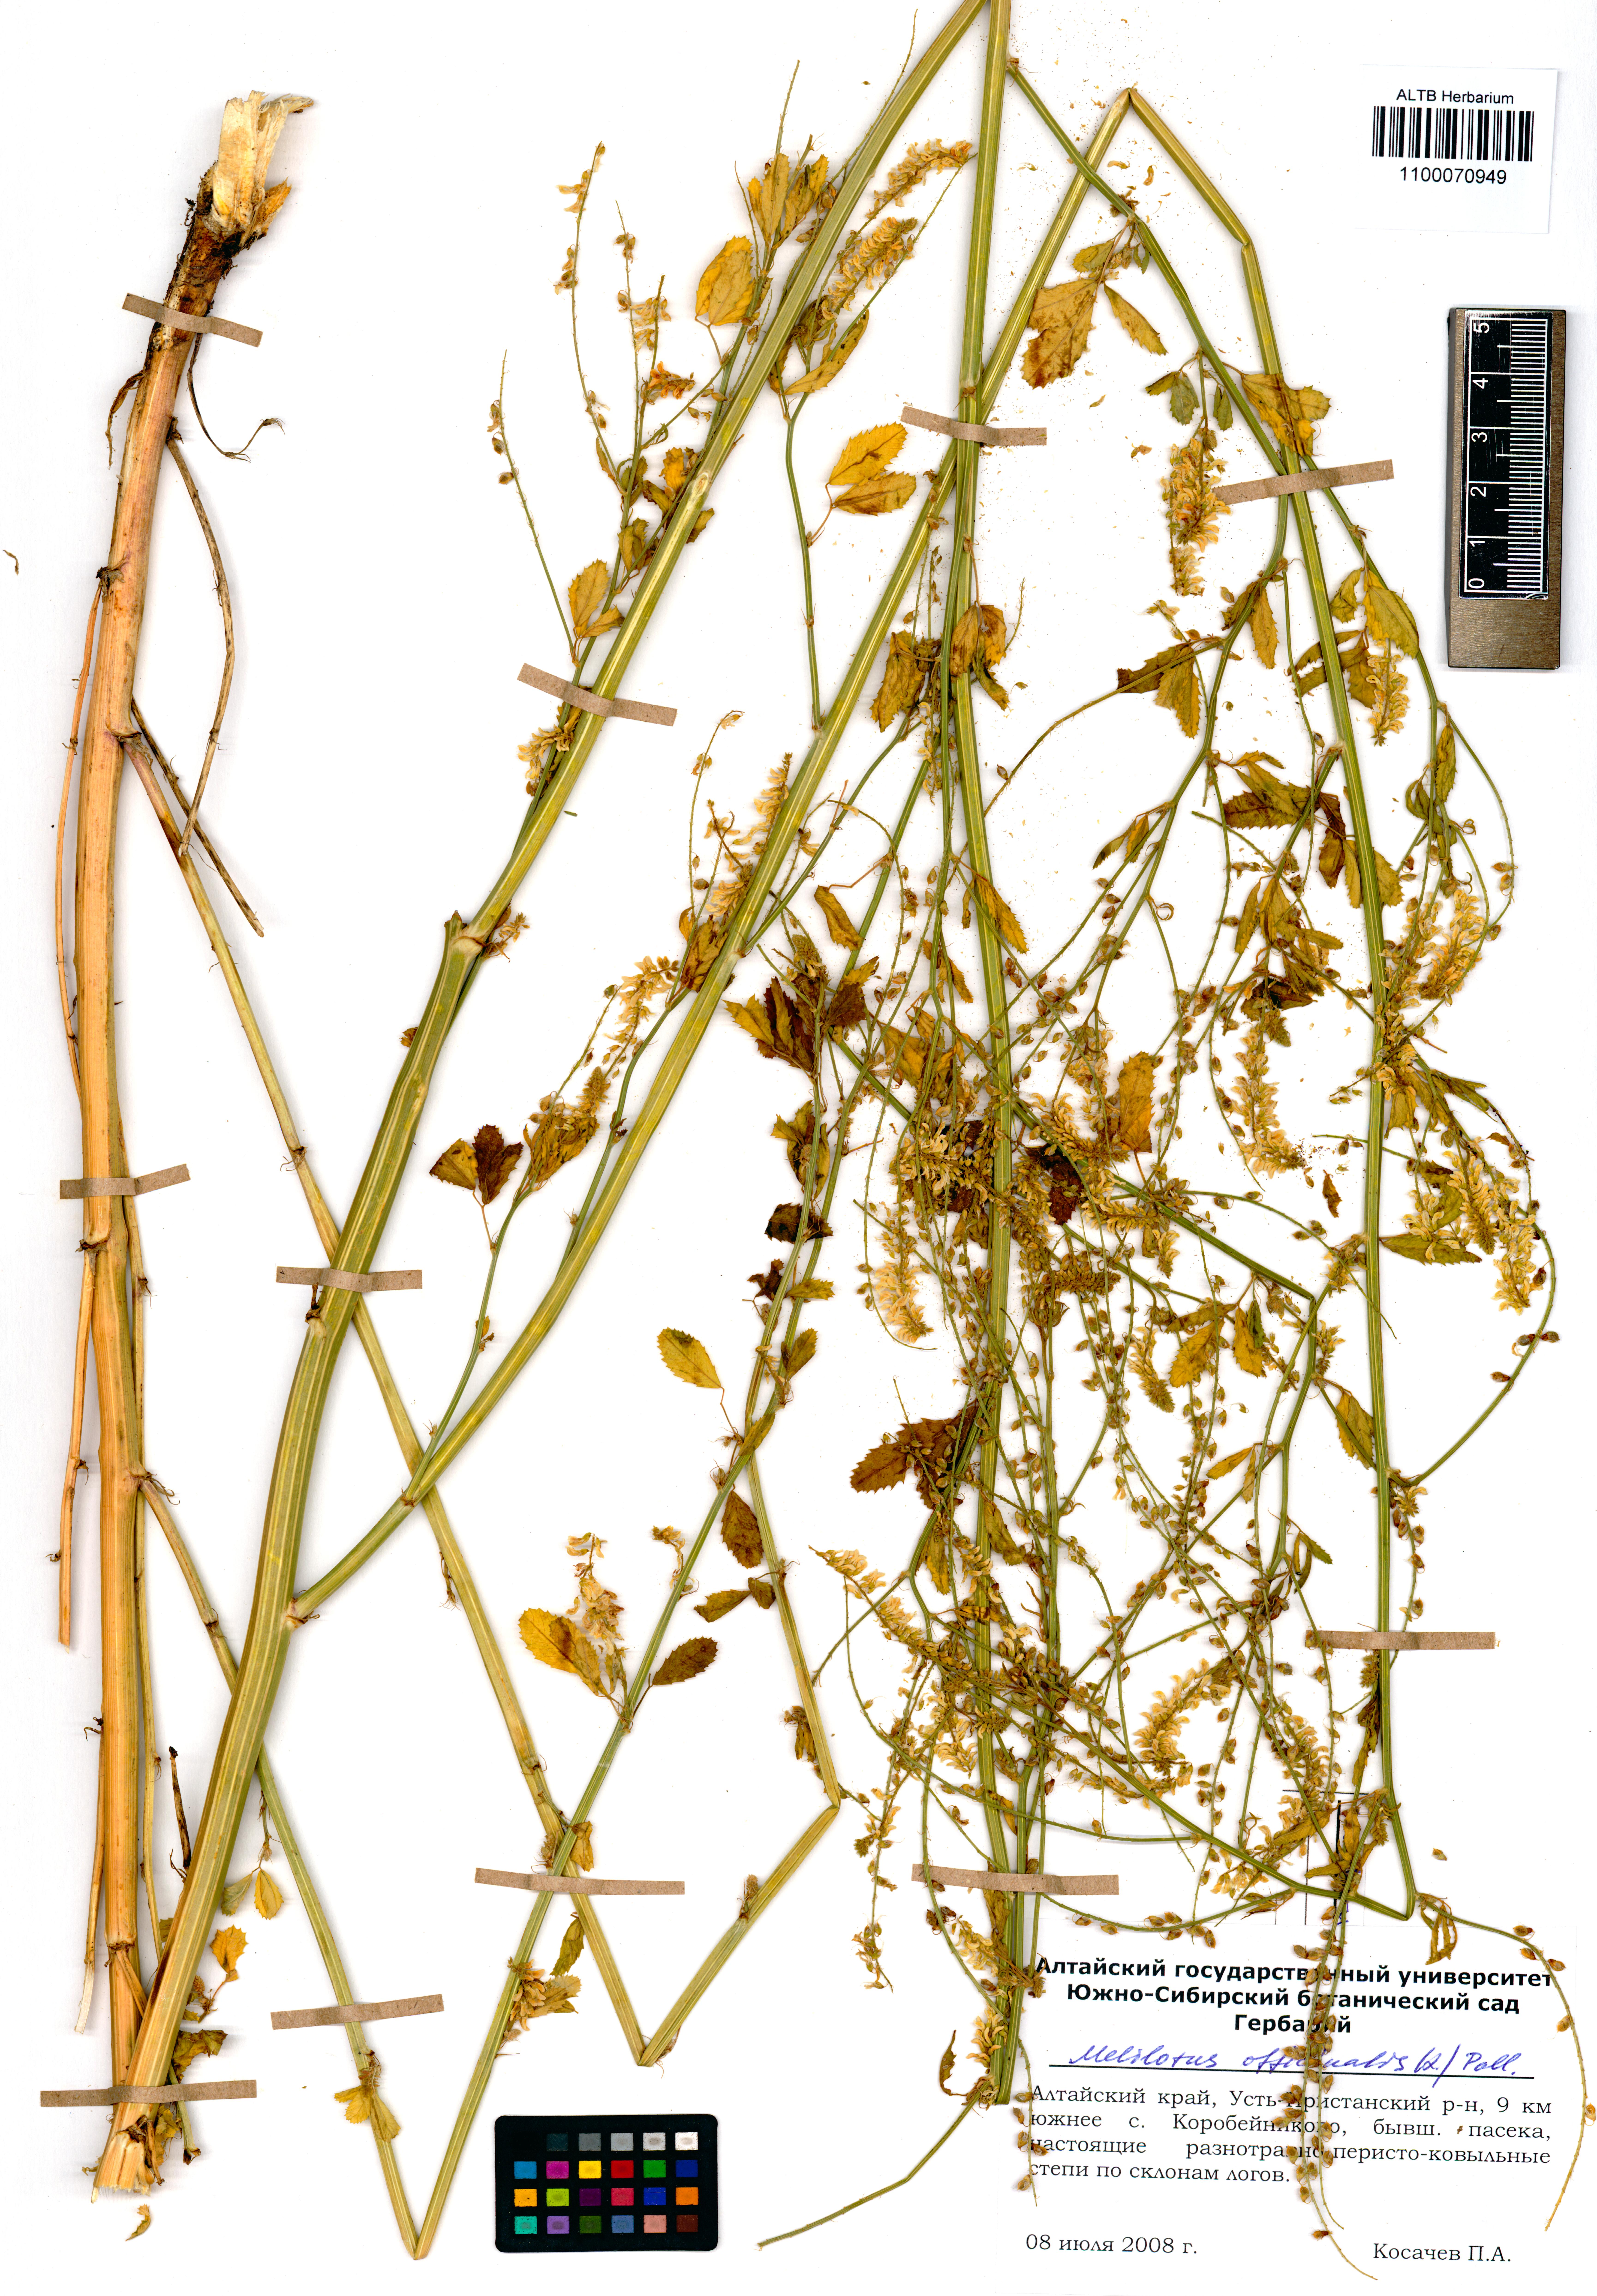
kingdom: Plantae
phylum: Tracheophyta
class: Magnoliopsida
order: Fabales
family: Fabaceae
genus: Melilotus
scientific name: Melilotus officinalis
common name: Sweetclover
